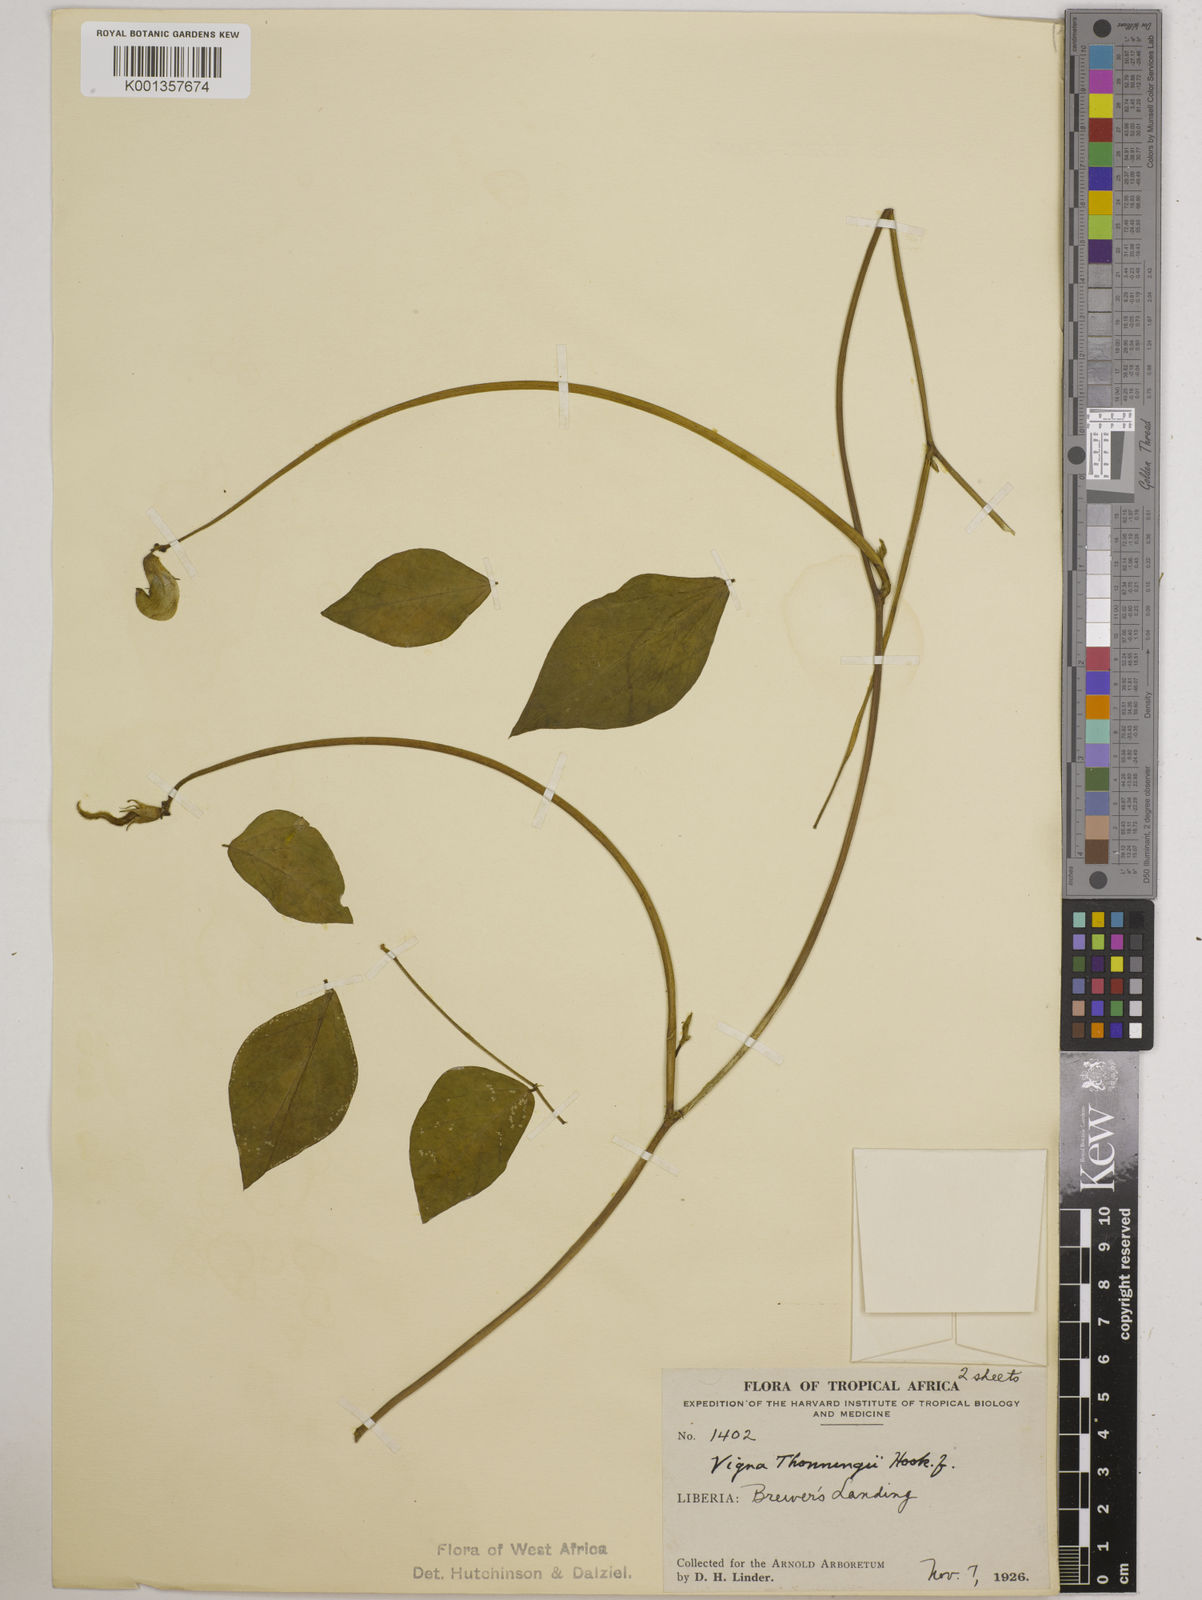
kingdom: Plantae
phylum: Tracheophyta
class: Magnoliopsida
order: Fabales
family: Fabaceae
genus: Vigna
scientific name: Vigna
